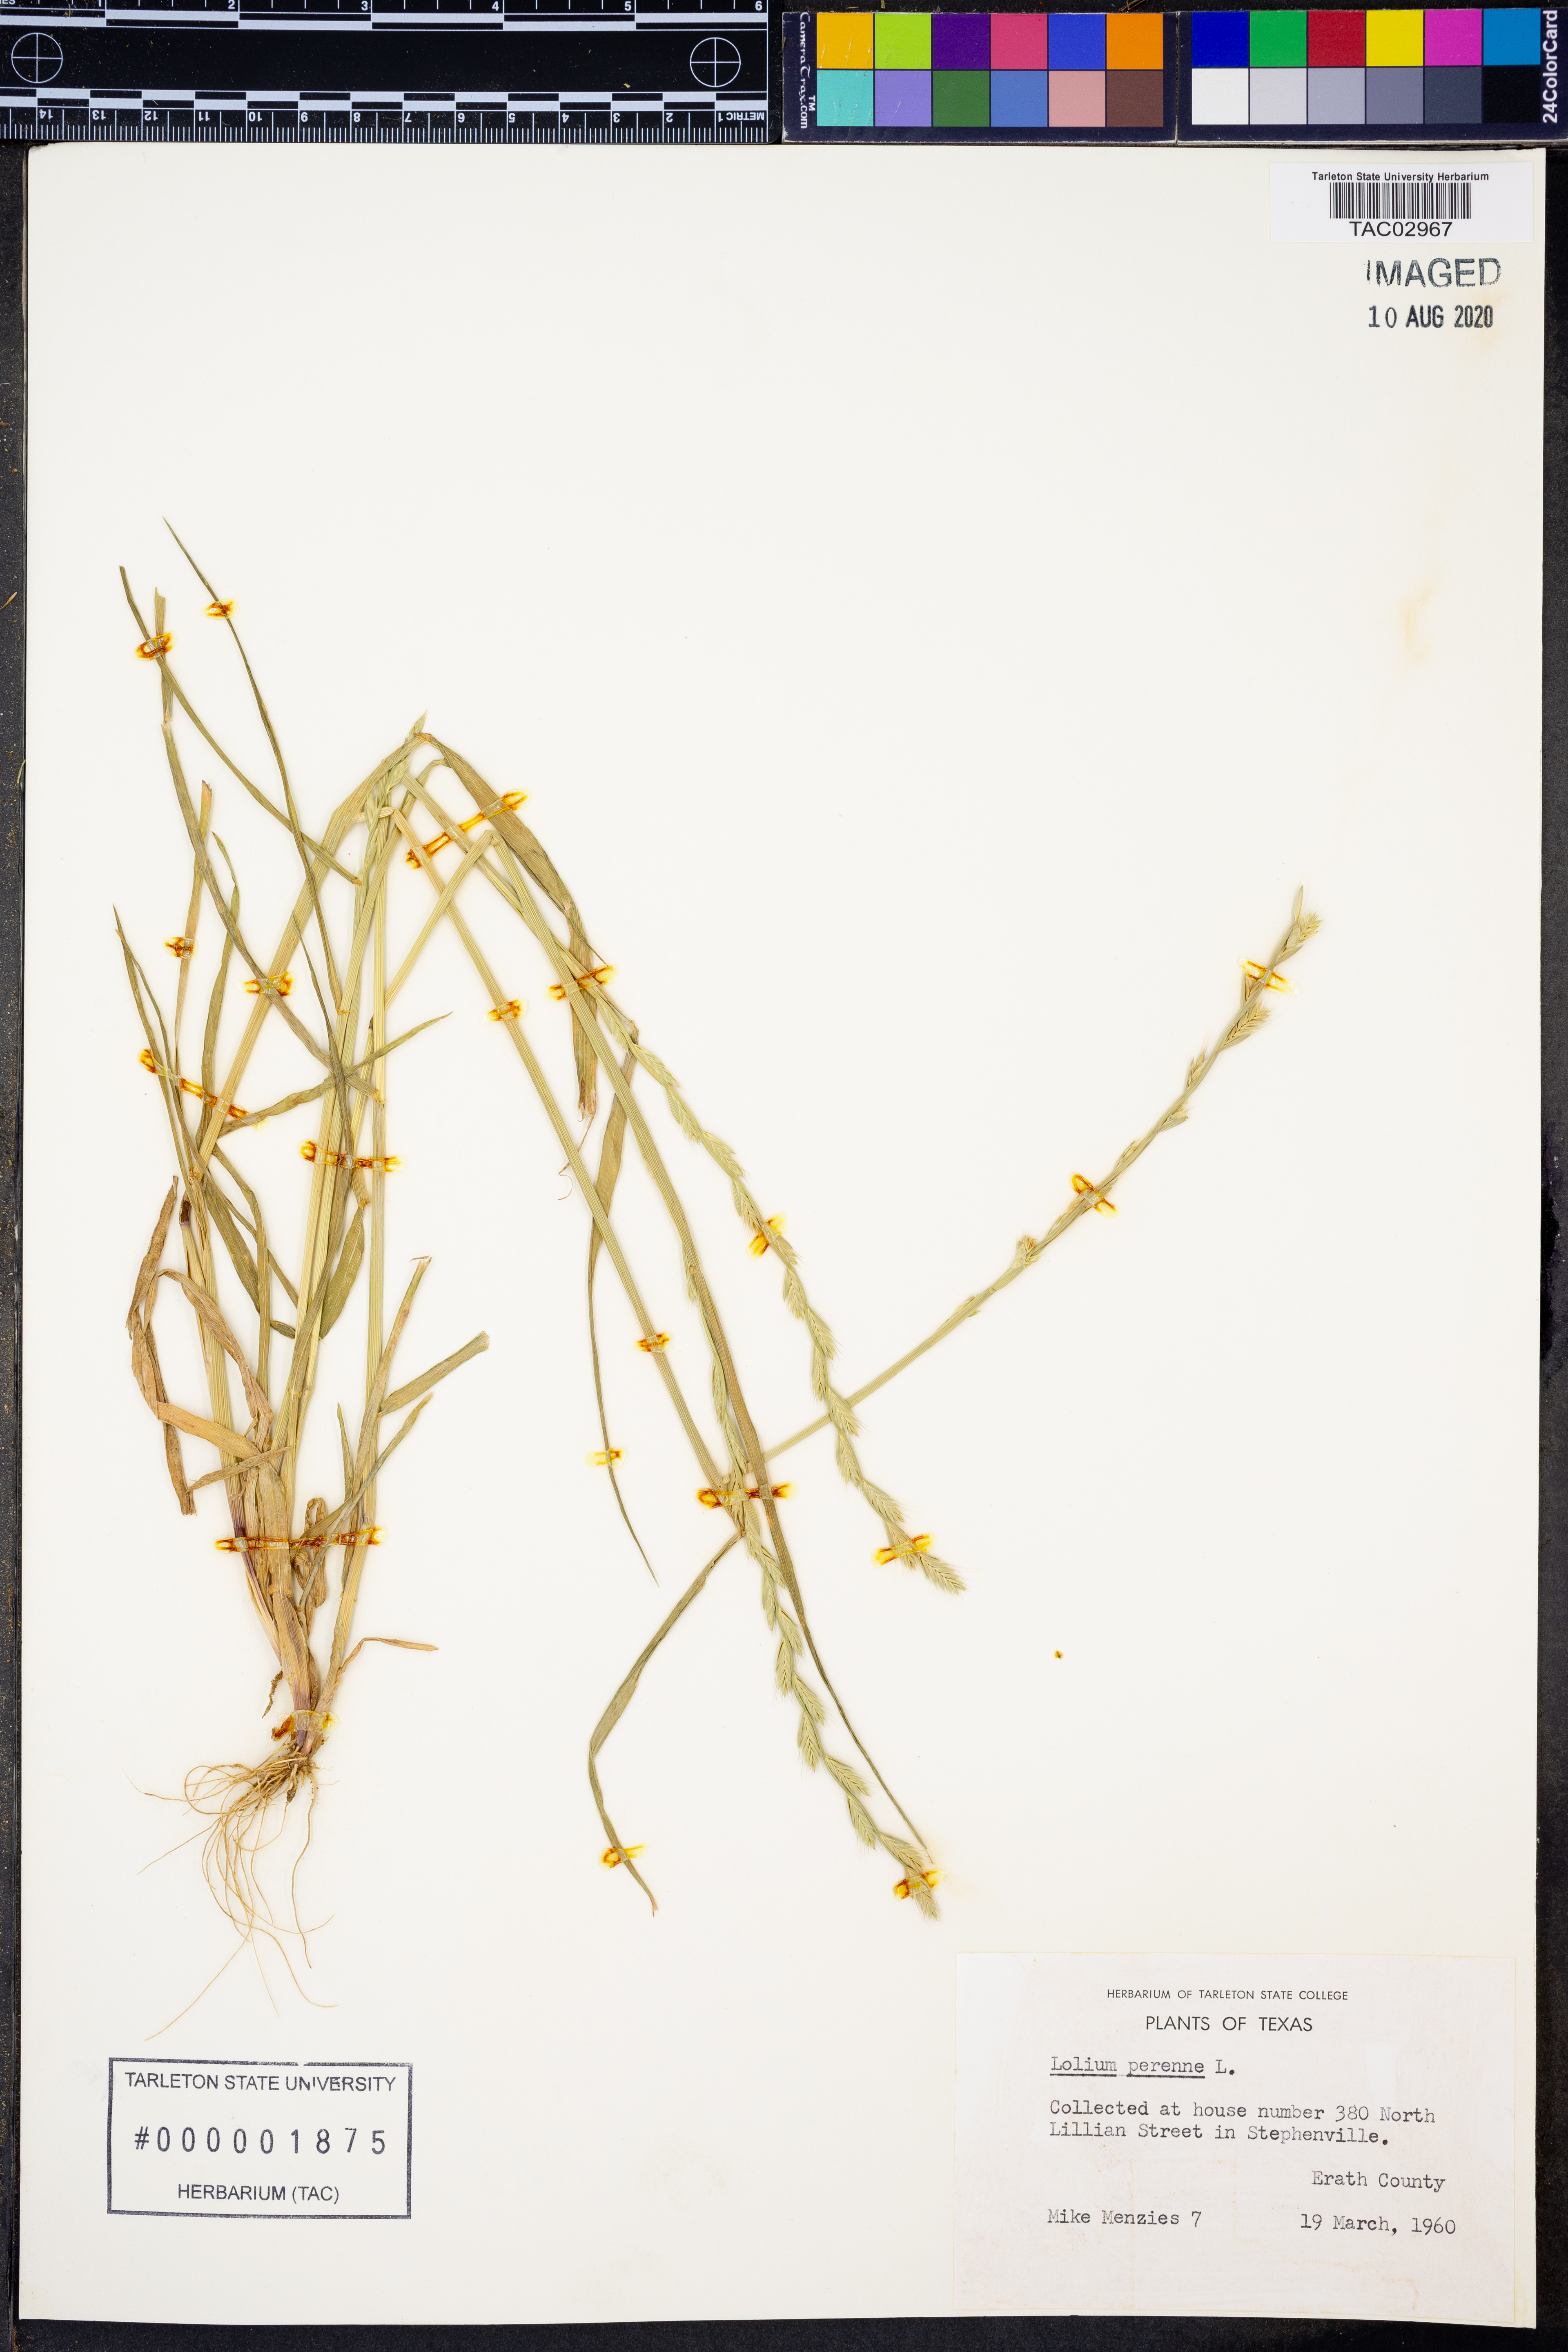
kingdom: Plantae
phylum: Tracheophyta
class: Liliopsida
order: Poales
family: Poaceae
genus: Lolium
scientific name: Lolium perenne
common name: Perennial ryegrass
